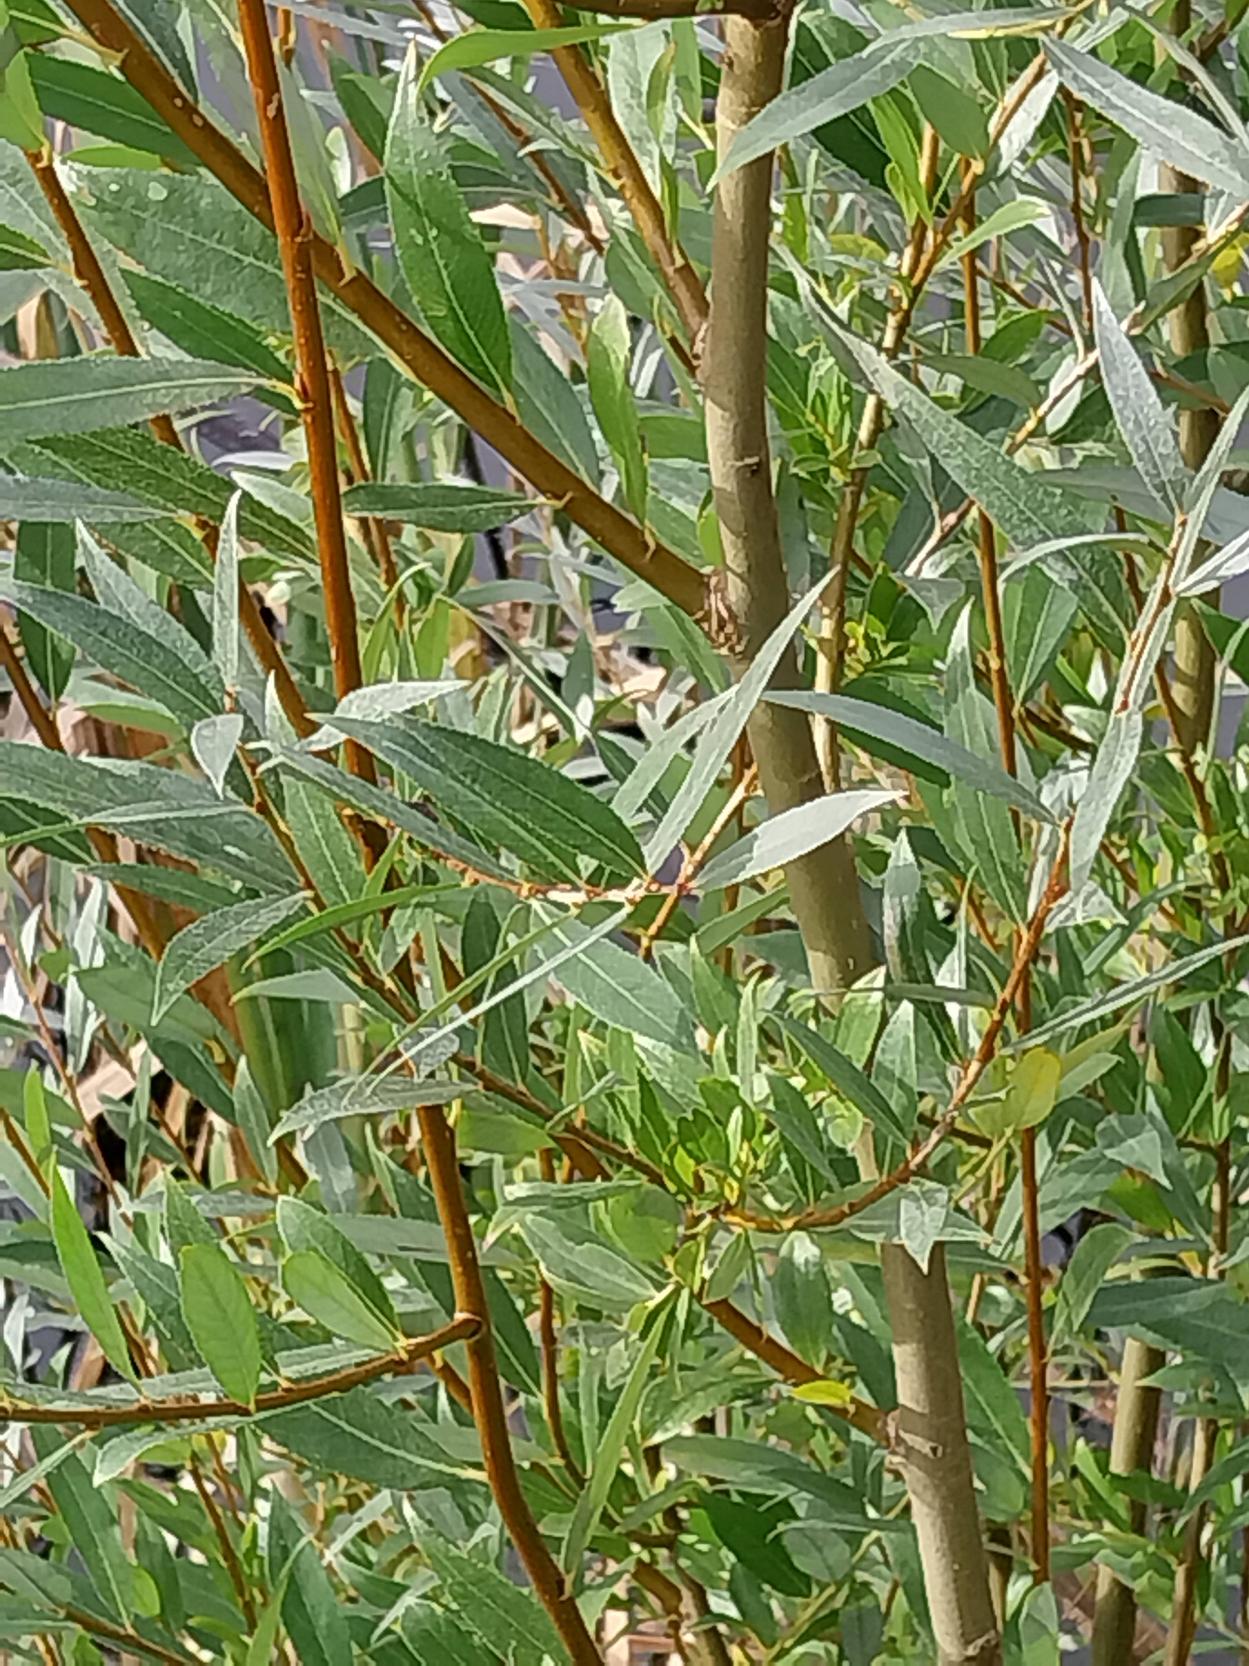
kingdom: Plantae
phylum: Tracheophyta
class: Magnoliopsida
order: Malpighiales
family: Salicaceae
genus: Salix
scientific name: Salix alba
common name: Hvid-pil
